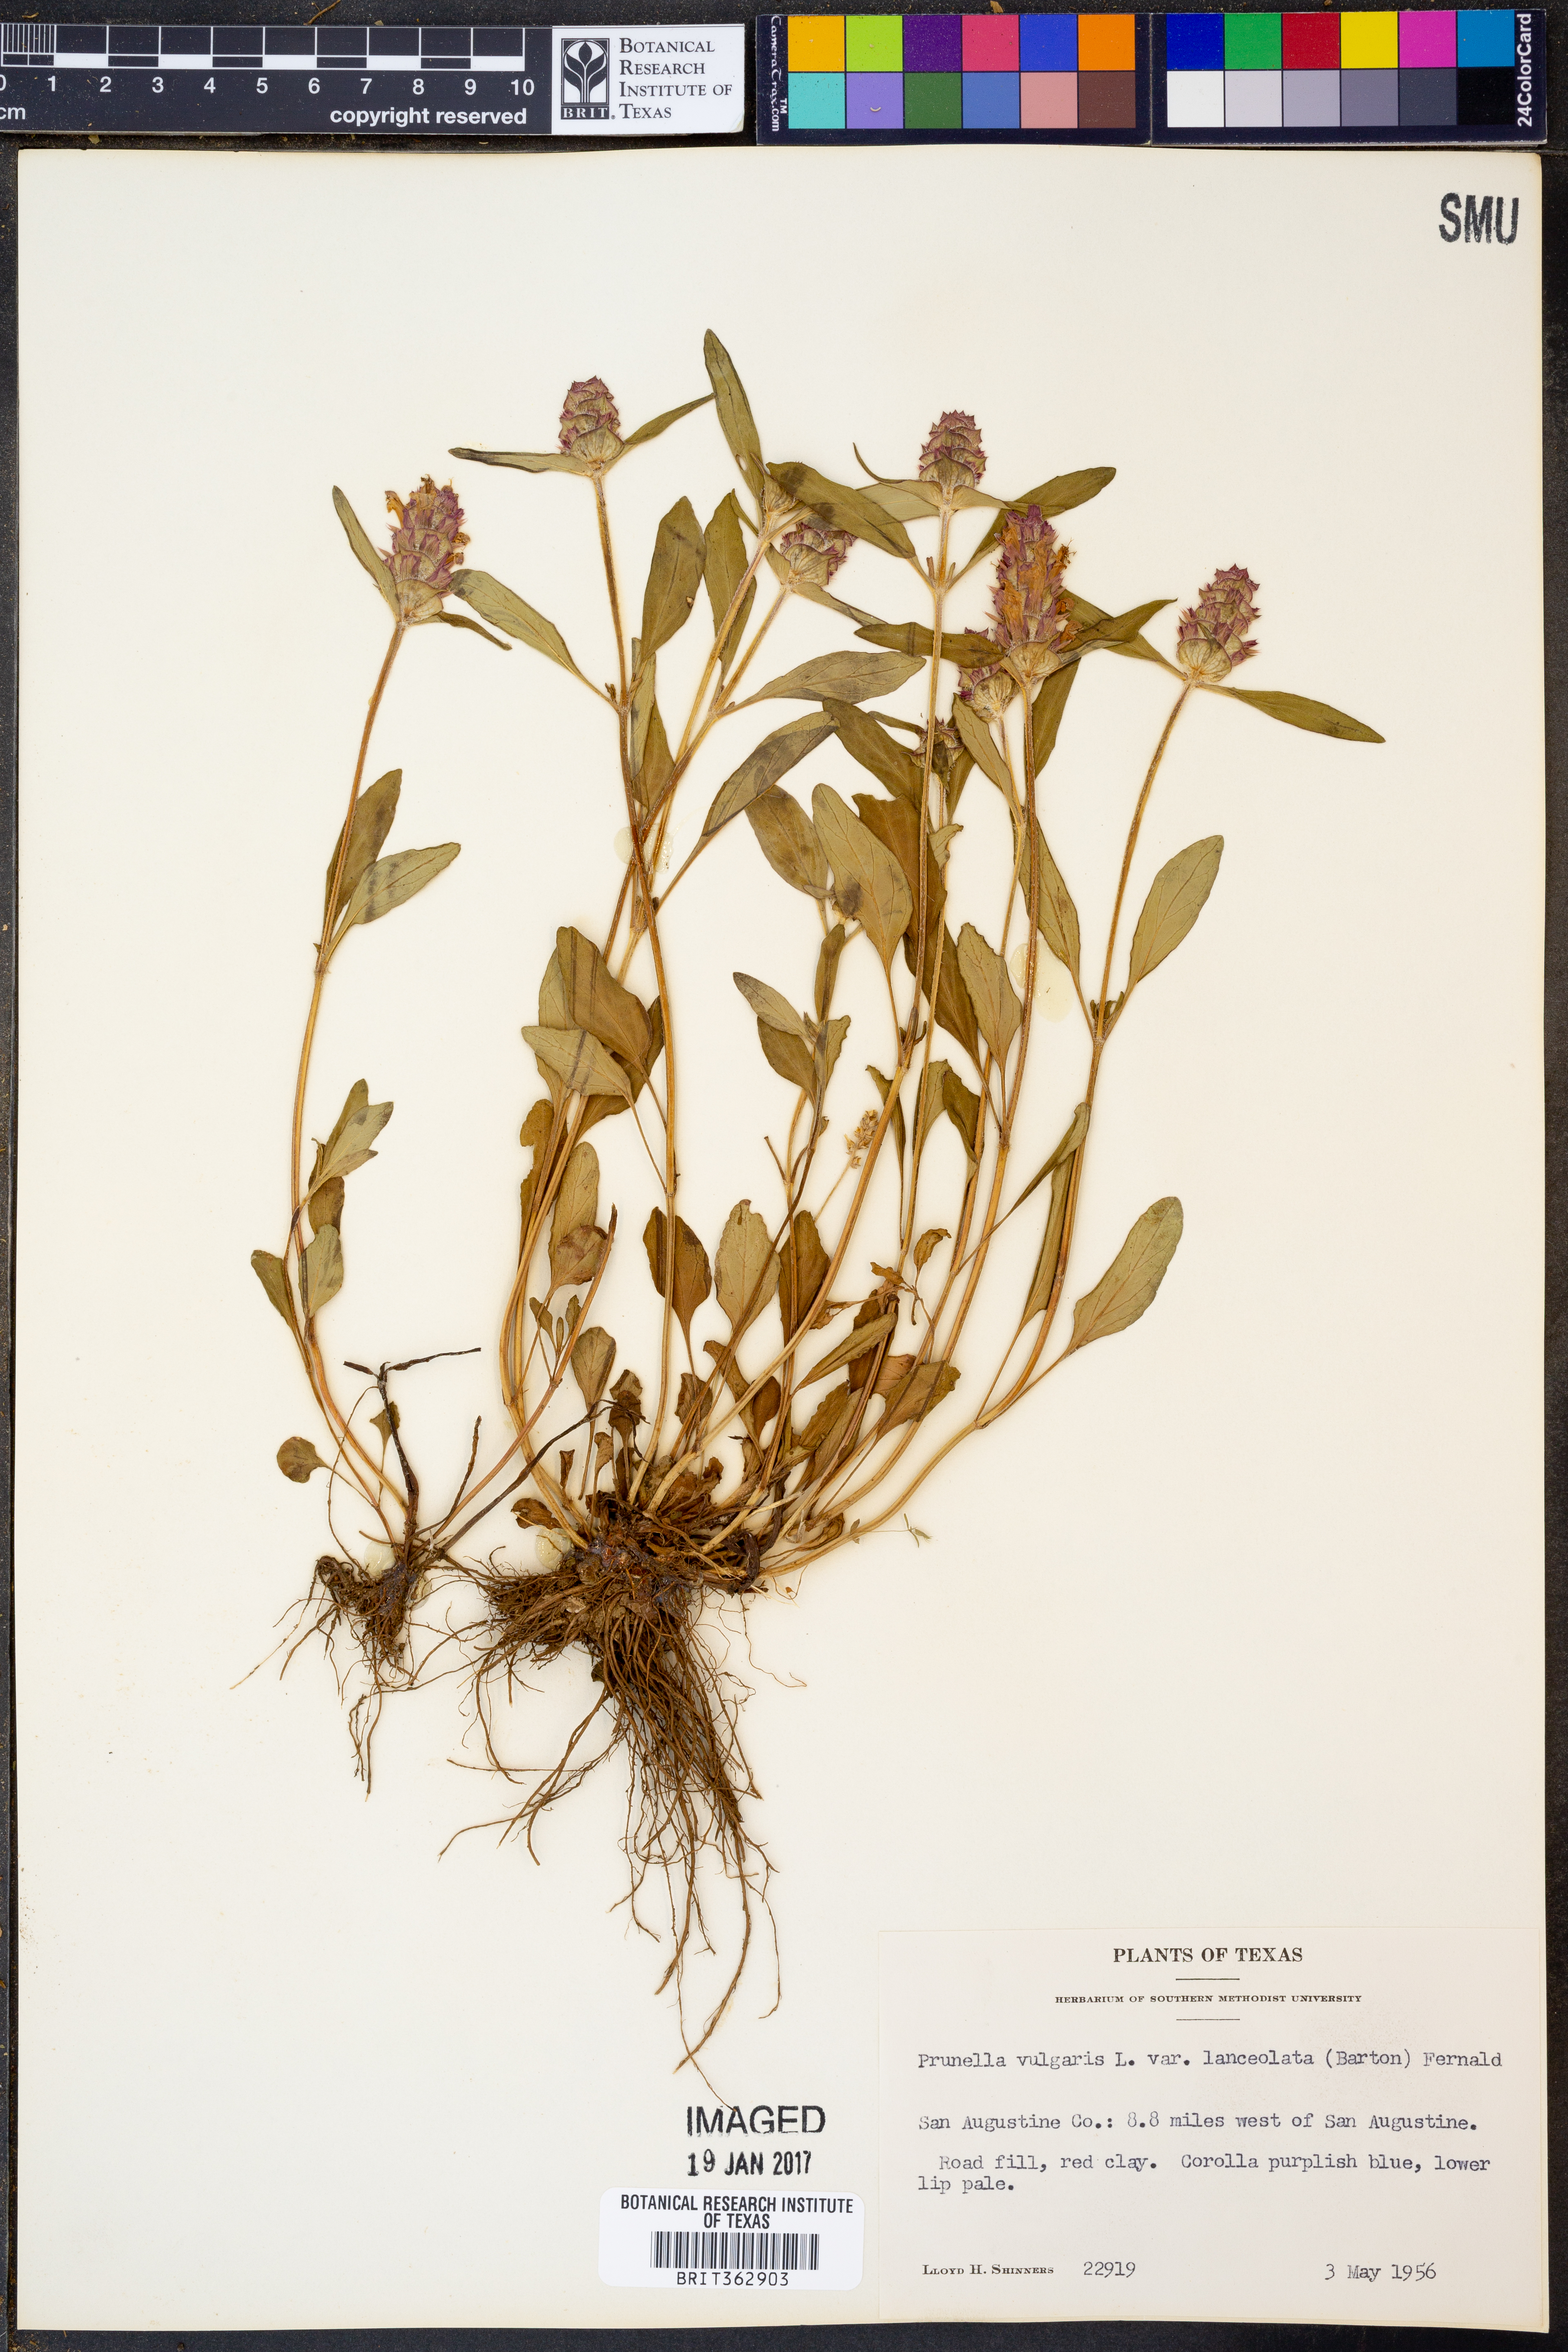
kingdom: Plantae
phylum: Tracheophyta
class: Magnoliopsida
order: Lamiales
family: Lamiaceae
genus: Prunella
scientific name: Prunella vulgaris
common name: Heal-all
